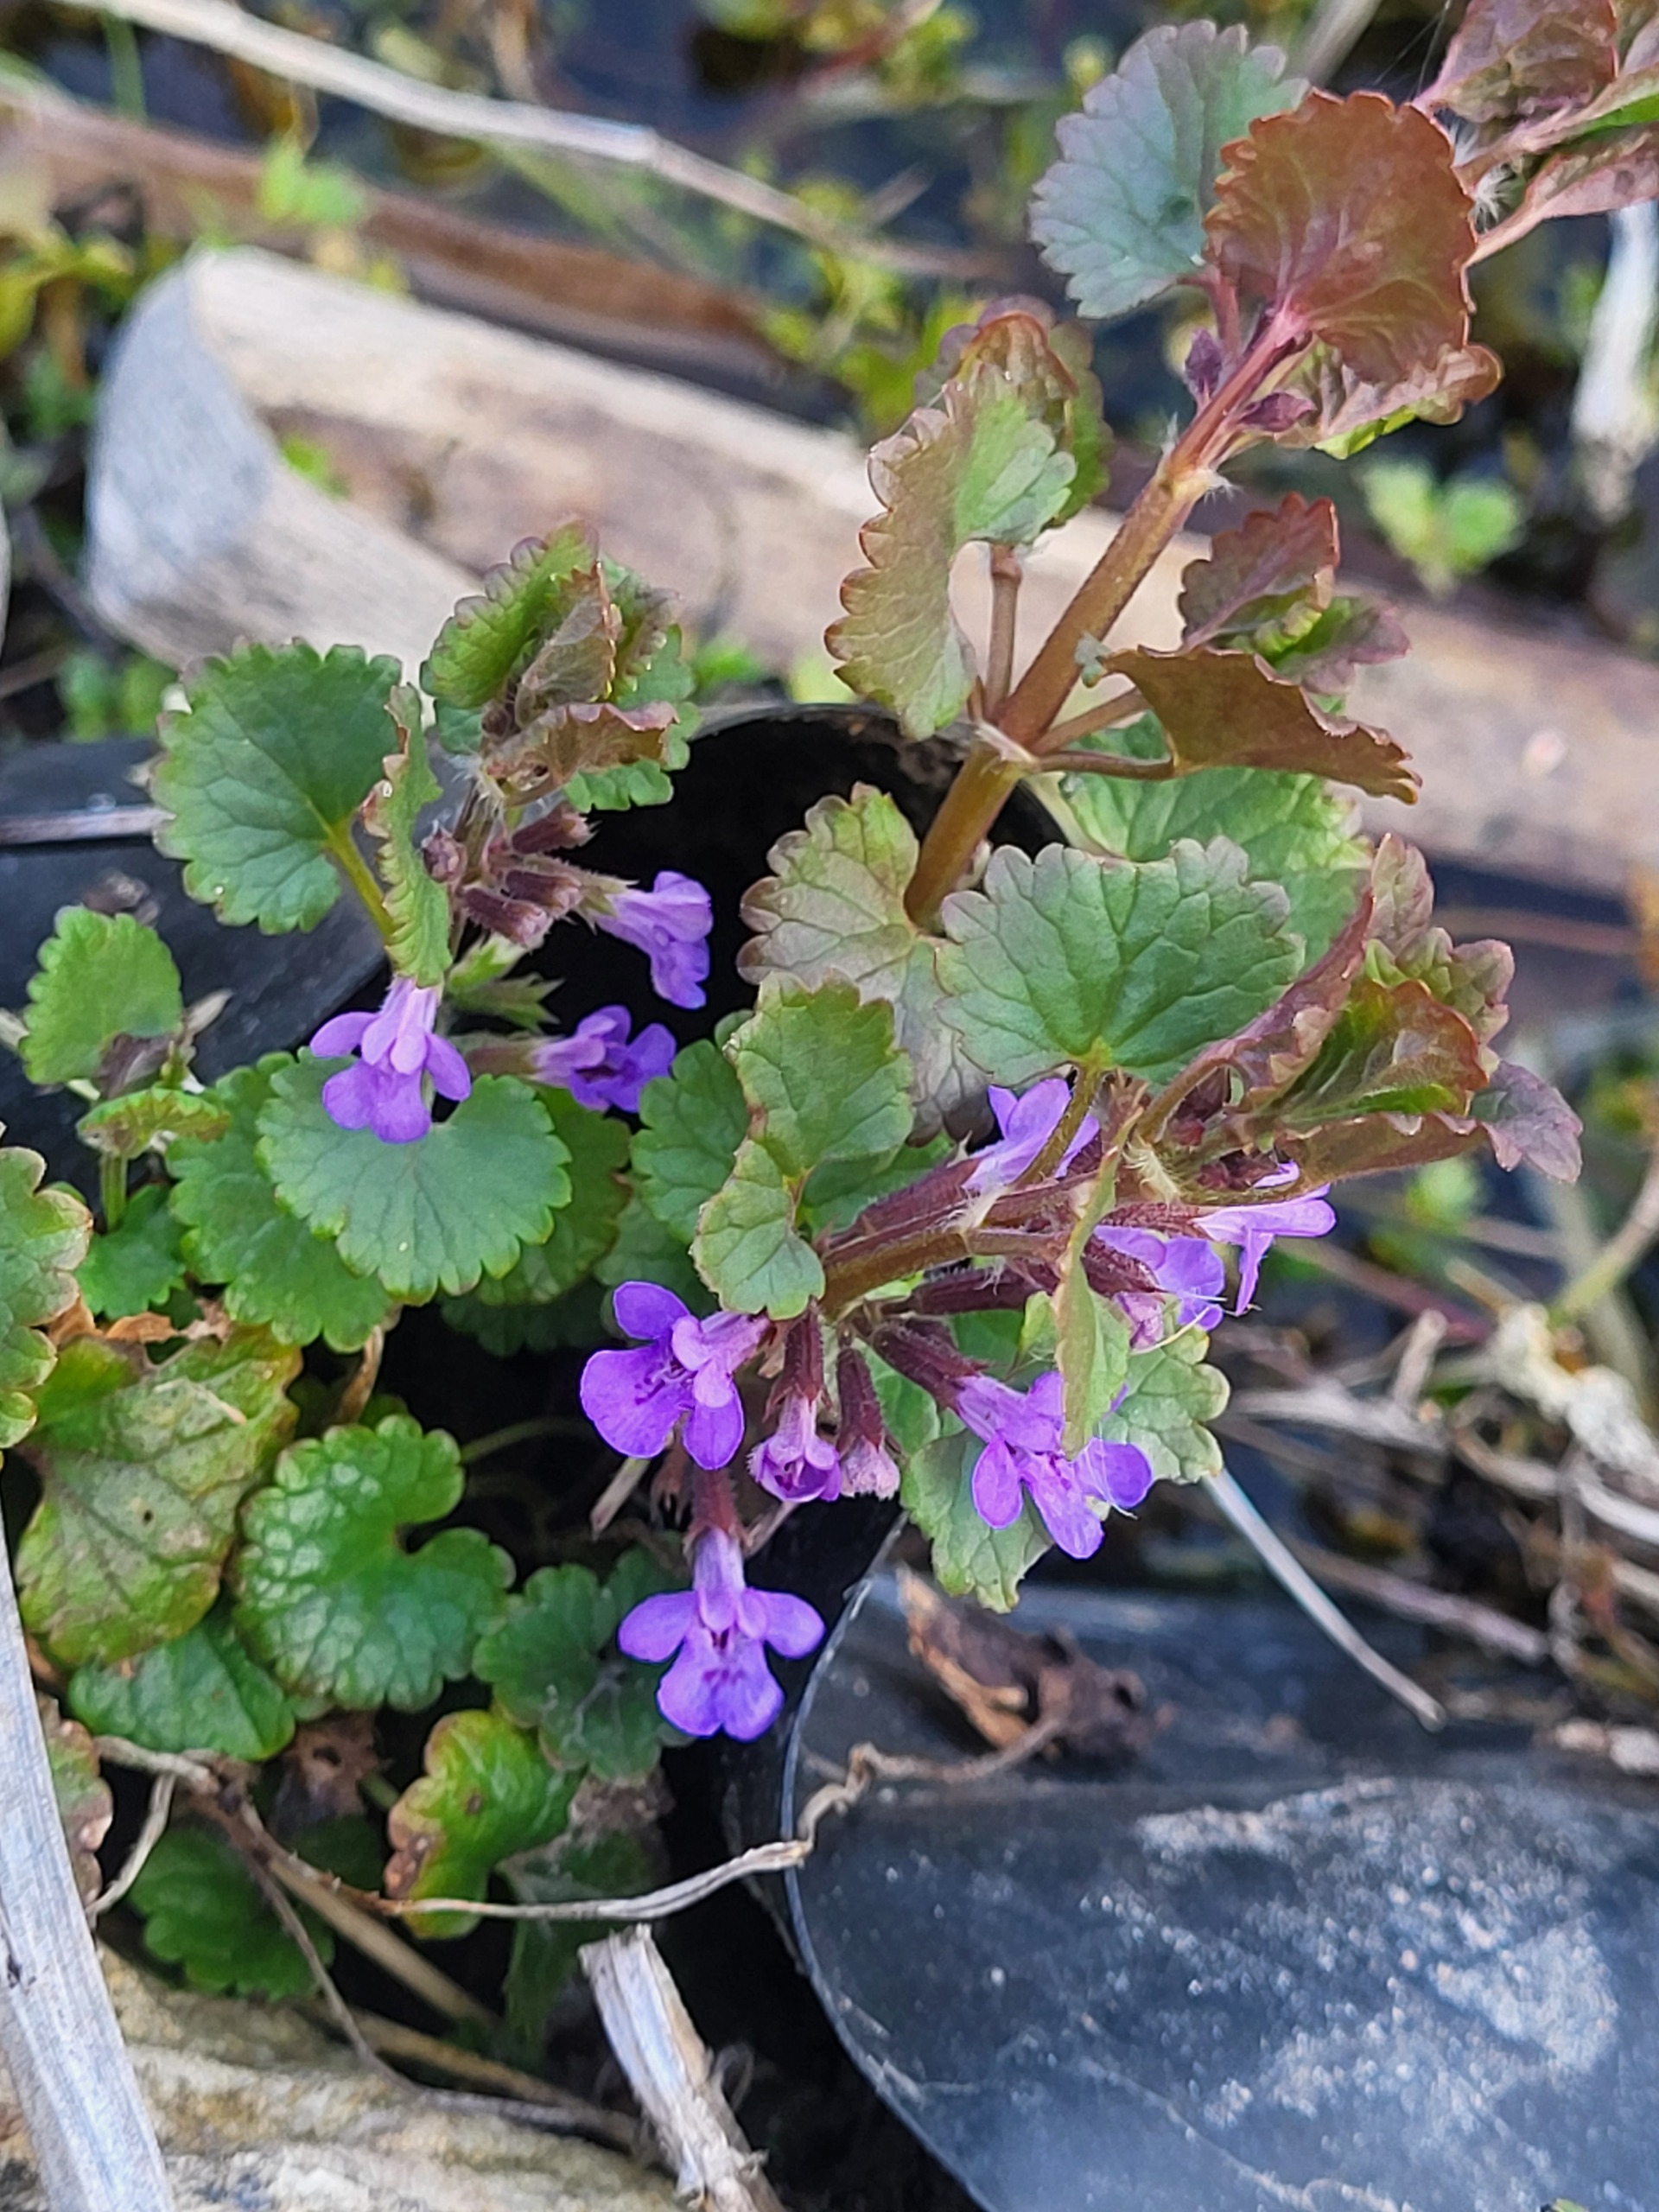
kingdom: Plantae
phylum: Tracheophyta
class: Magnoliopsida
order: Lamiales
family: Lamiaceae
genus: Glechoma
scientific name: Glechoma hederacea
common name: Korsknap
